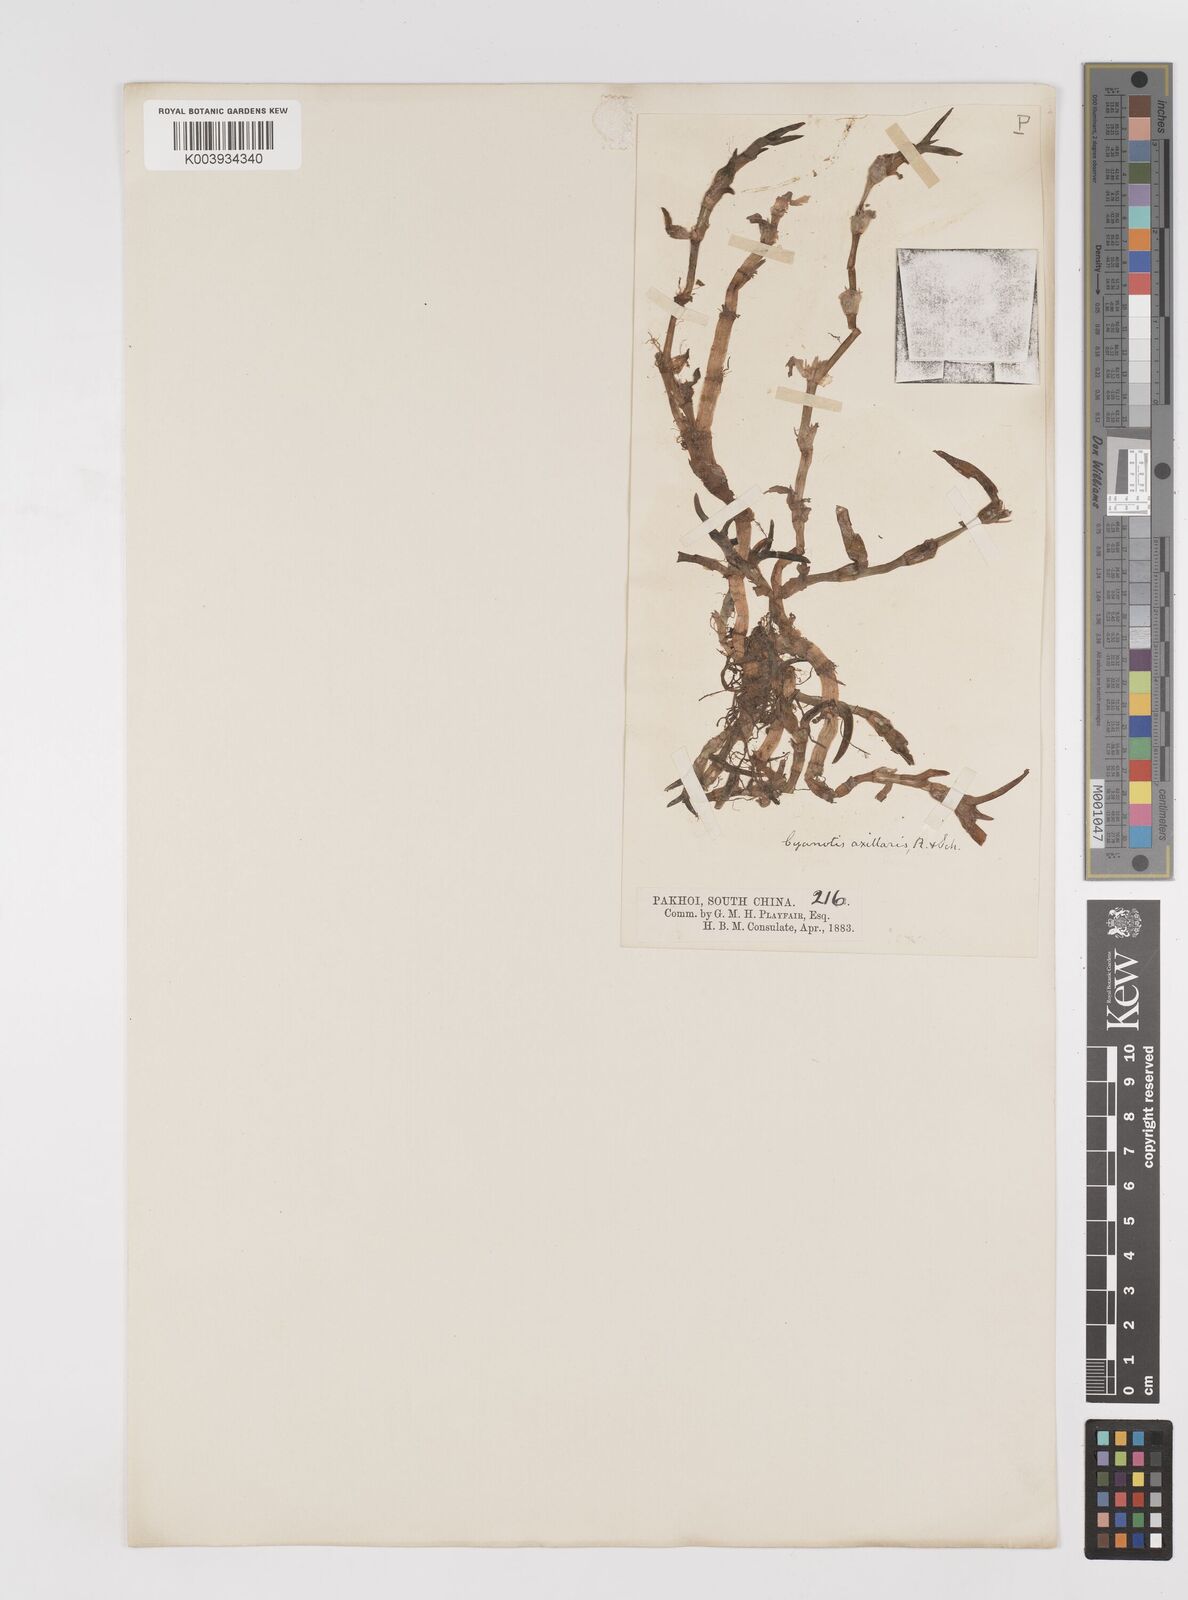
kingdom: Plantae
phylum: Tracheophyta
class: Liliopsida
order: Commelinales
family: Commelinaceae
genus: Cyanotis
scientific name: Cyanotis axillaris
